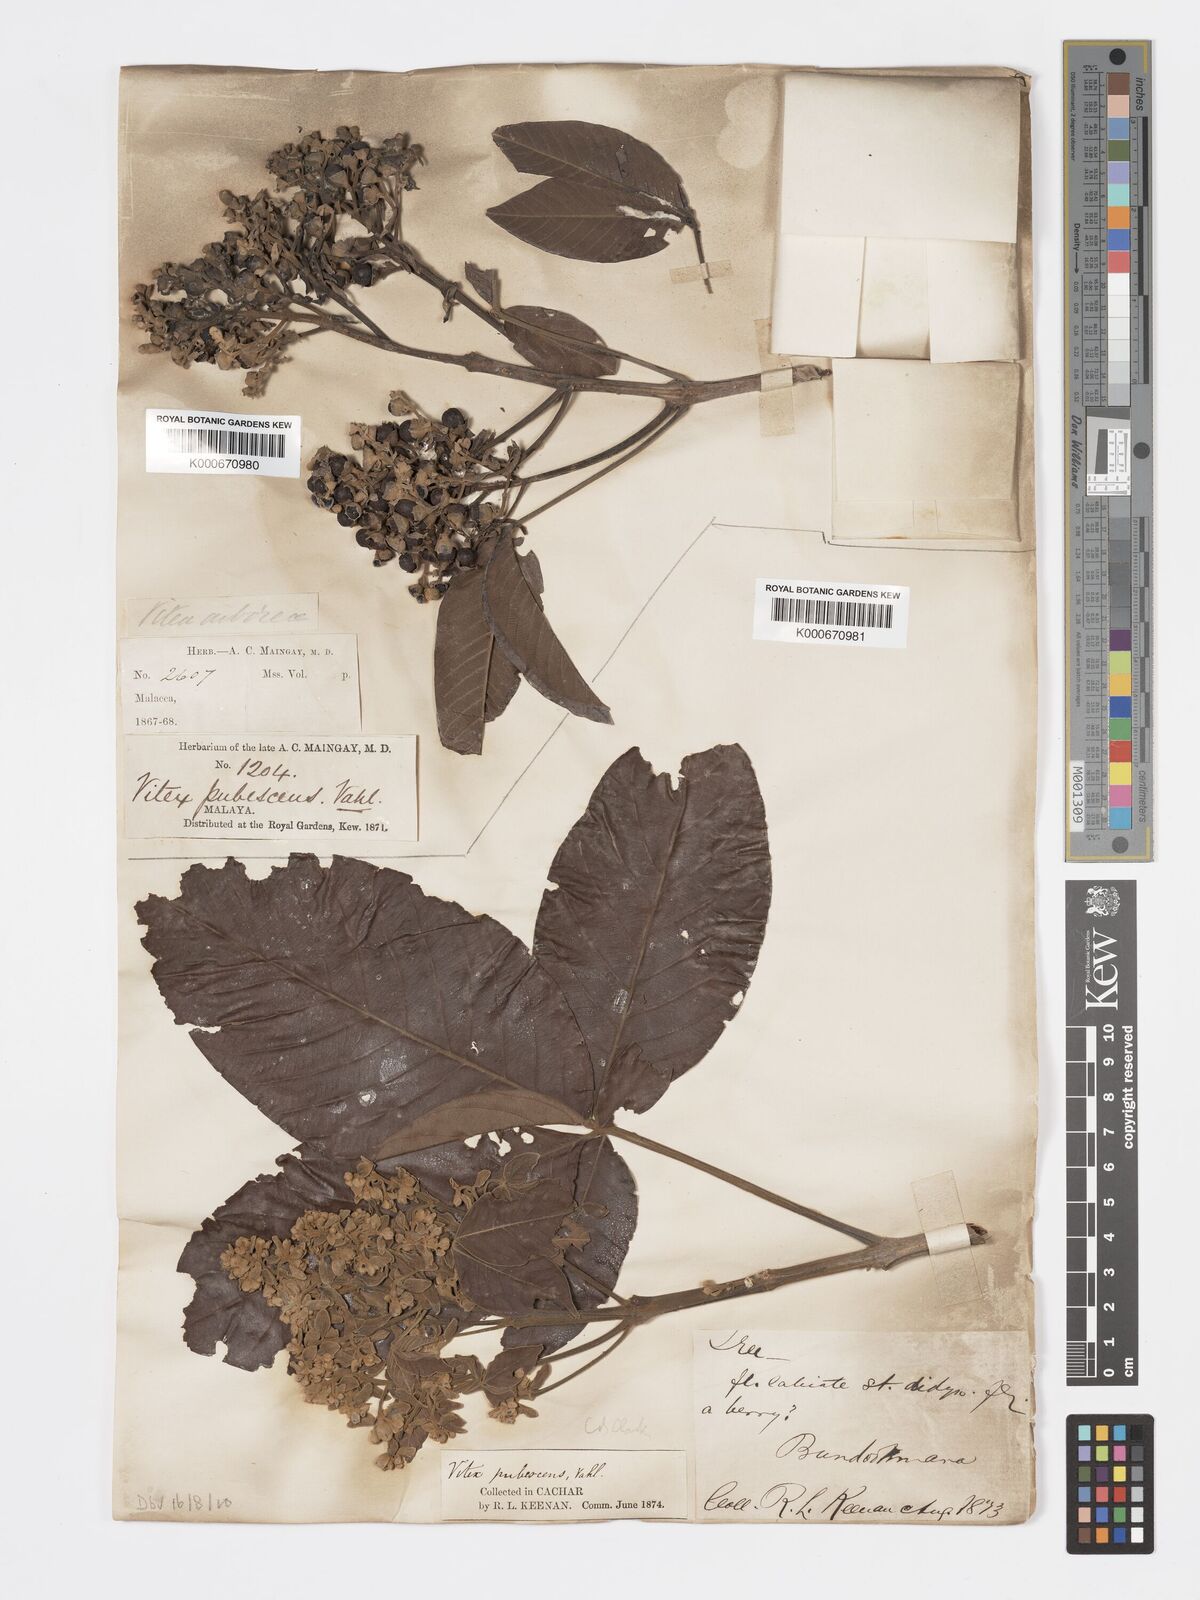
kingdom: Plantae
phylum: Tracheophyta
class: Magnoliopsida
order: Lamiales
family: Lamiaceae
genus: Vitex
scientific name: Vitex pinnata
